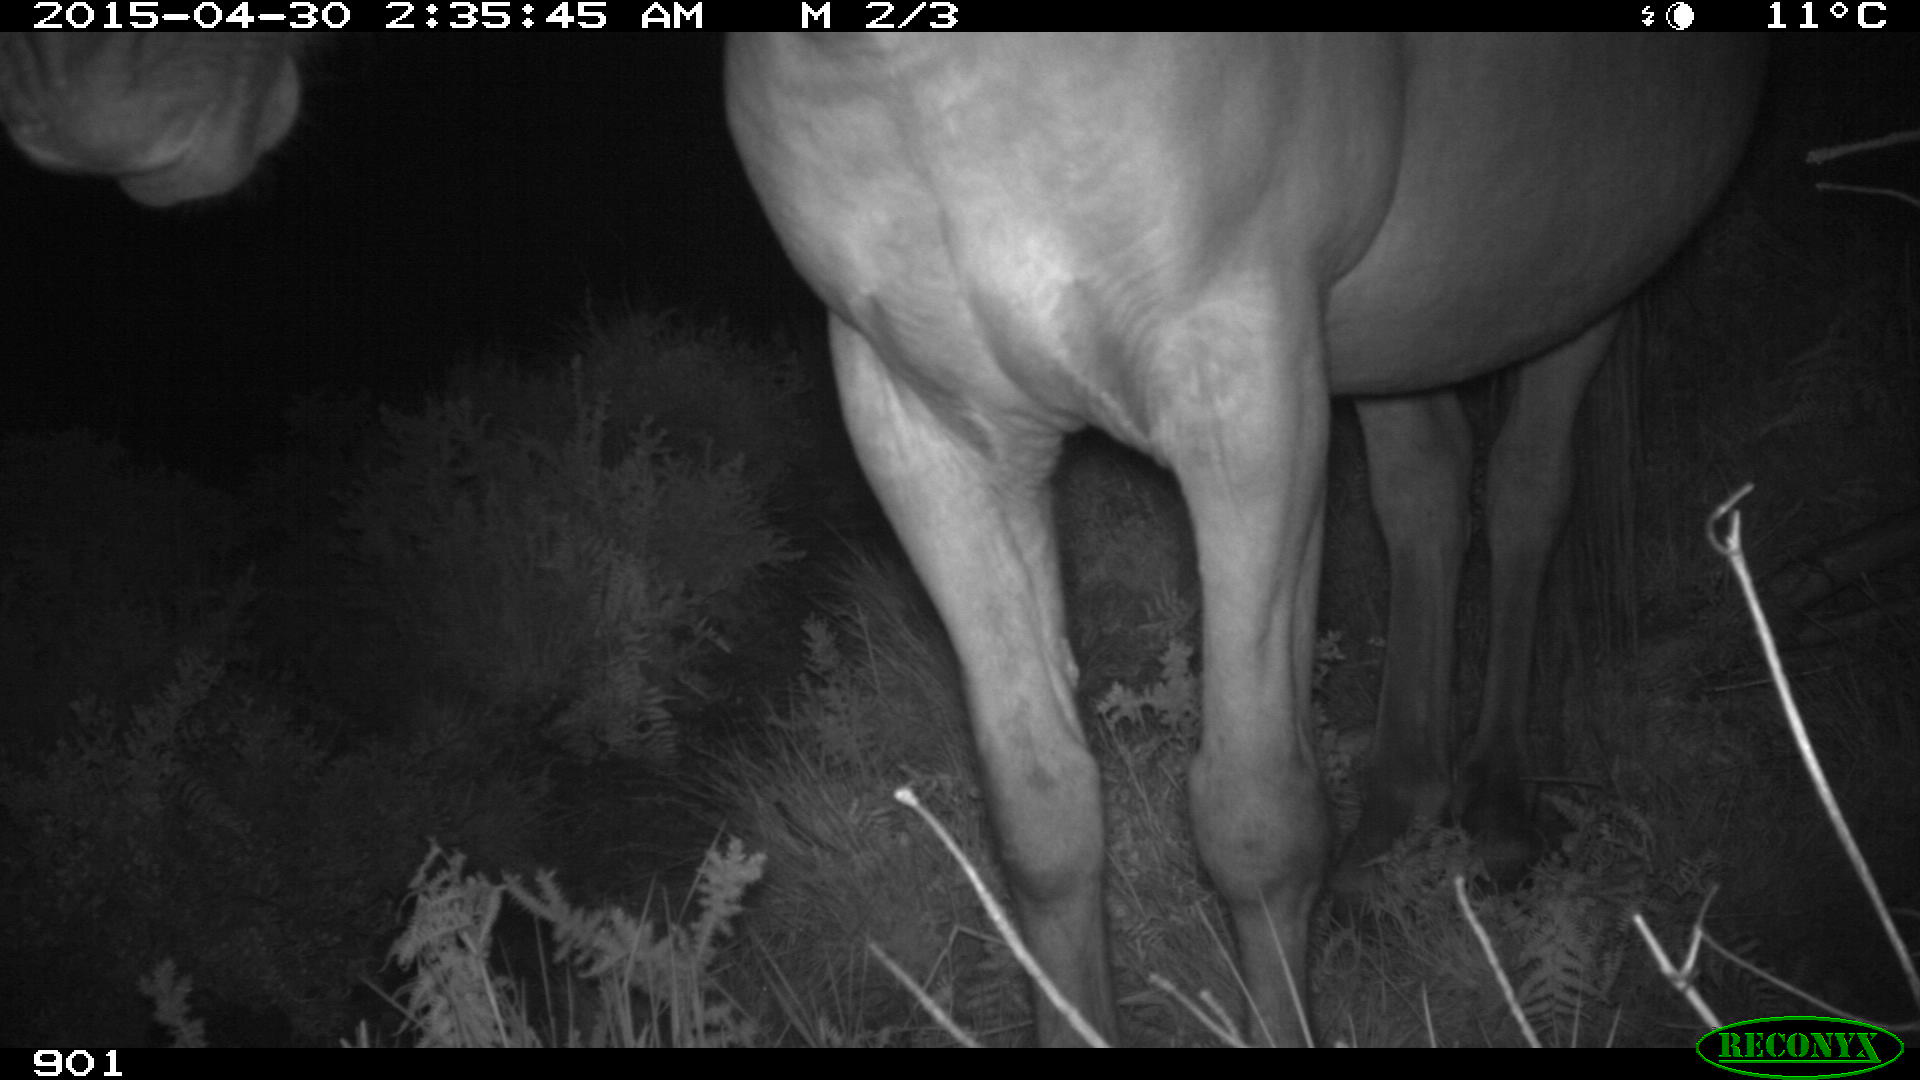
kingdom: Animalia
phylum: Chordata
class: Mammalia
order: Perissodactyla
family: Equidae
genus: Equus
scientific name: Equus caballus
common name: Horse
